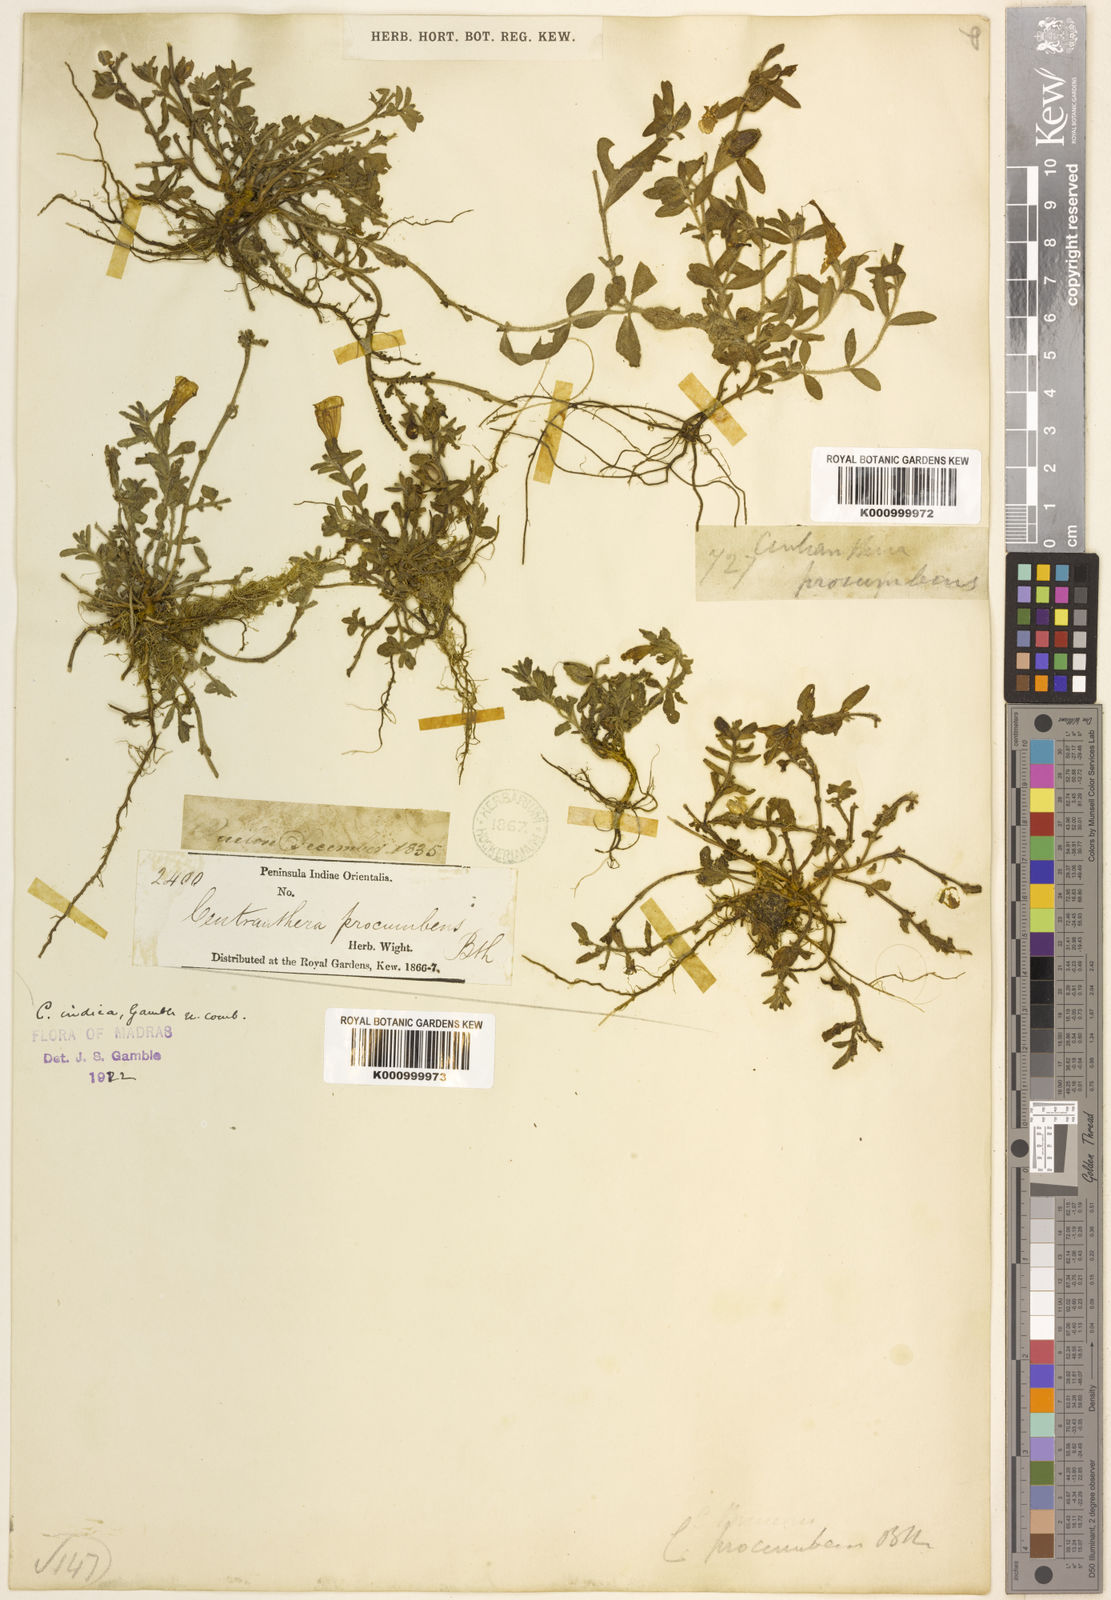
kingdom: Plantae
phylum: Tracheophyta
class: Magnoliopsida
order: Lamiales
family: Orobanchaceae
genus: Centranthera
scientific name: Centranthera indica
